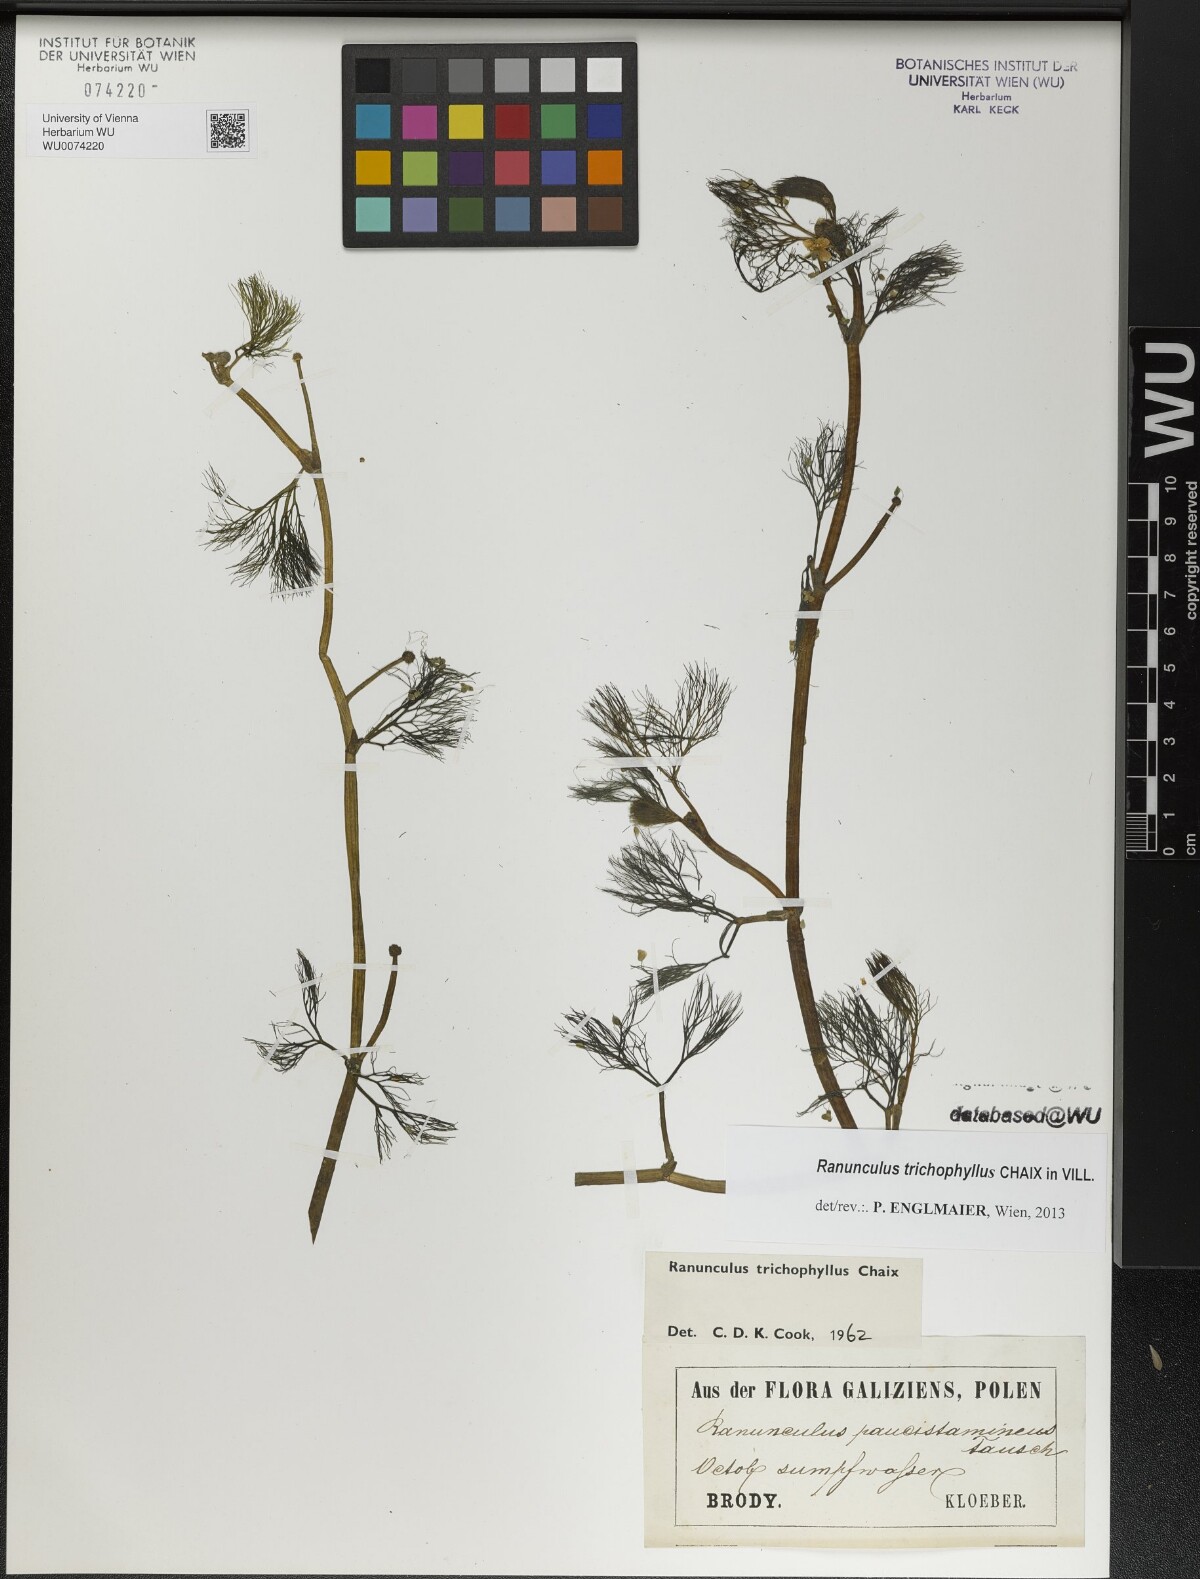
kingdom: Plantae
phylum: Tracheophyta
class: Magnoliopsida
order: Ranunculales
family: Ranunculaceae
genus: Ranunculus
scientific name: Ranunculus trichophyllus
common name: Thread-leaved water-crowfoot
